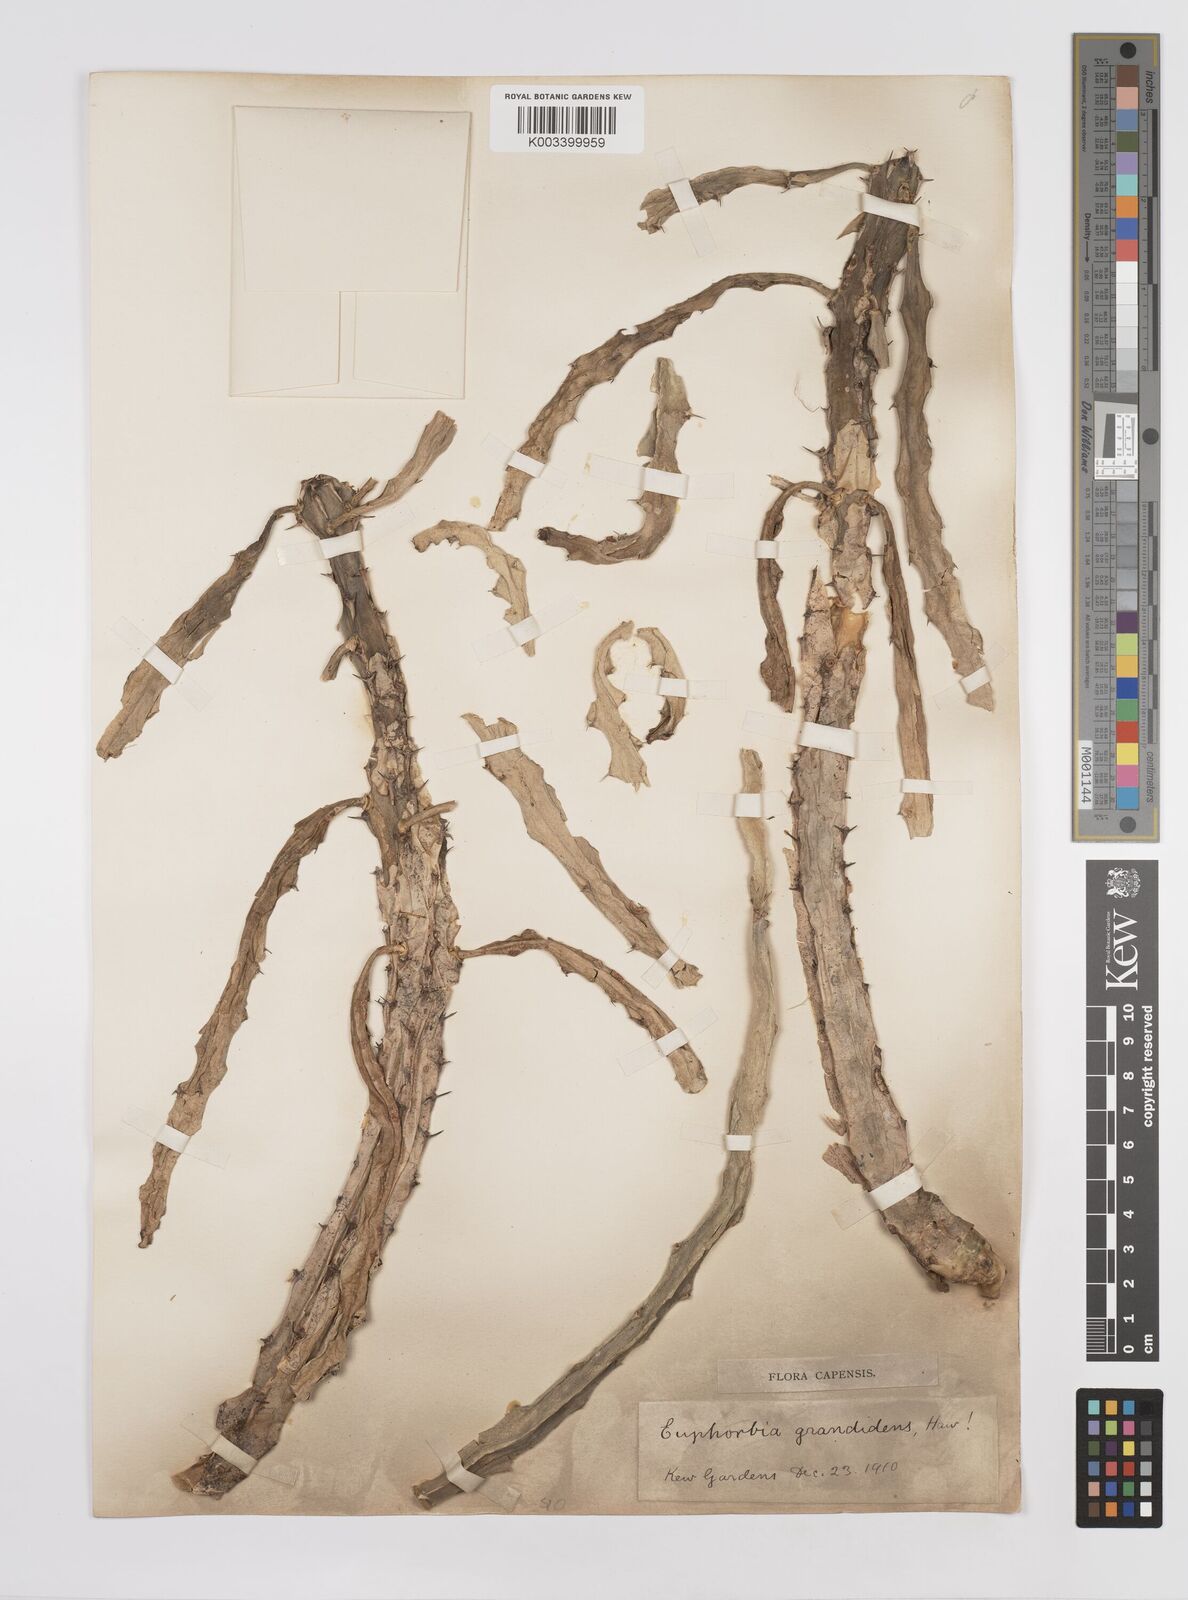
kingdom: Plantae
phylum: Tracheophyta
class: Magnoliopsida
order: Malpighiales
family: Euphorbiaceae
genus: Euphorbia
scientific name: Euphorbia
